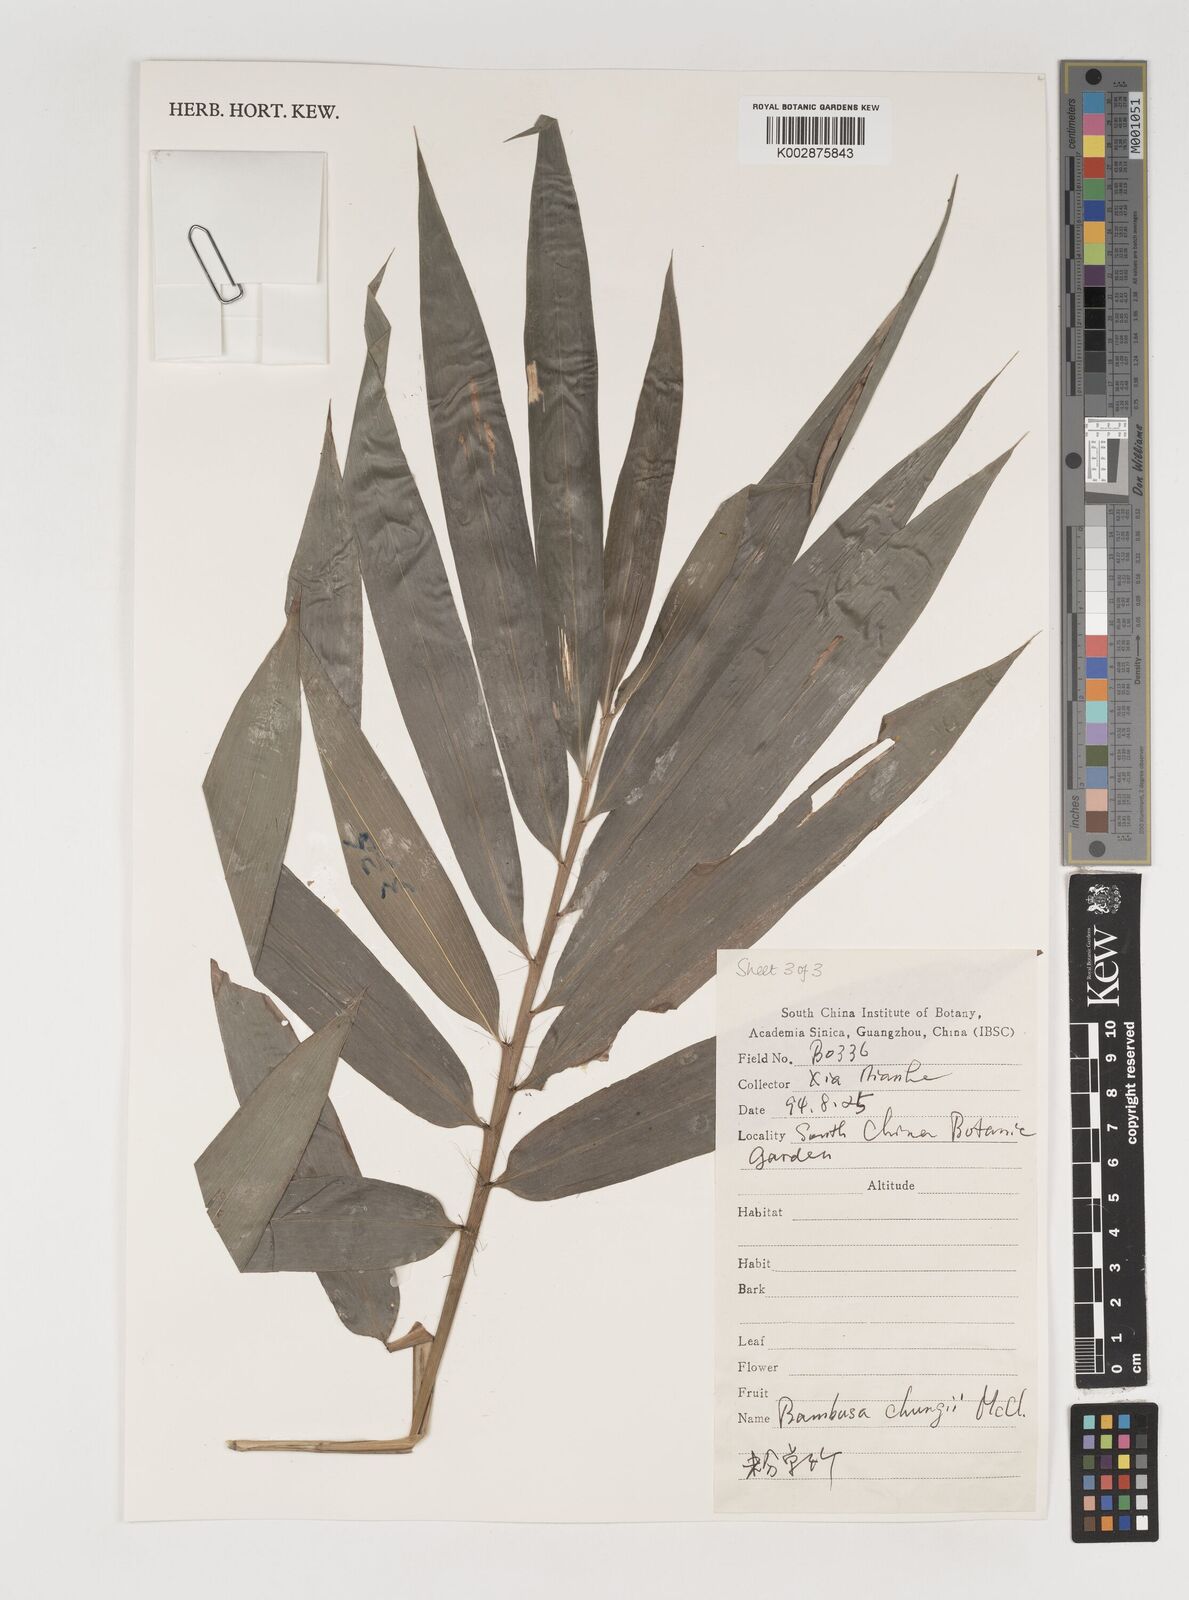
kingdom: Plantae
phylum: Tracheophyta
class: Liliopsida
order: Poales
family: Poaceae
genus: Bambusa
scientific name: Bambusa chungii
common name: White-powder bamboo
